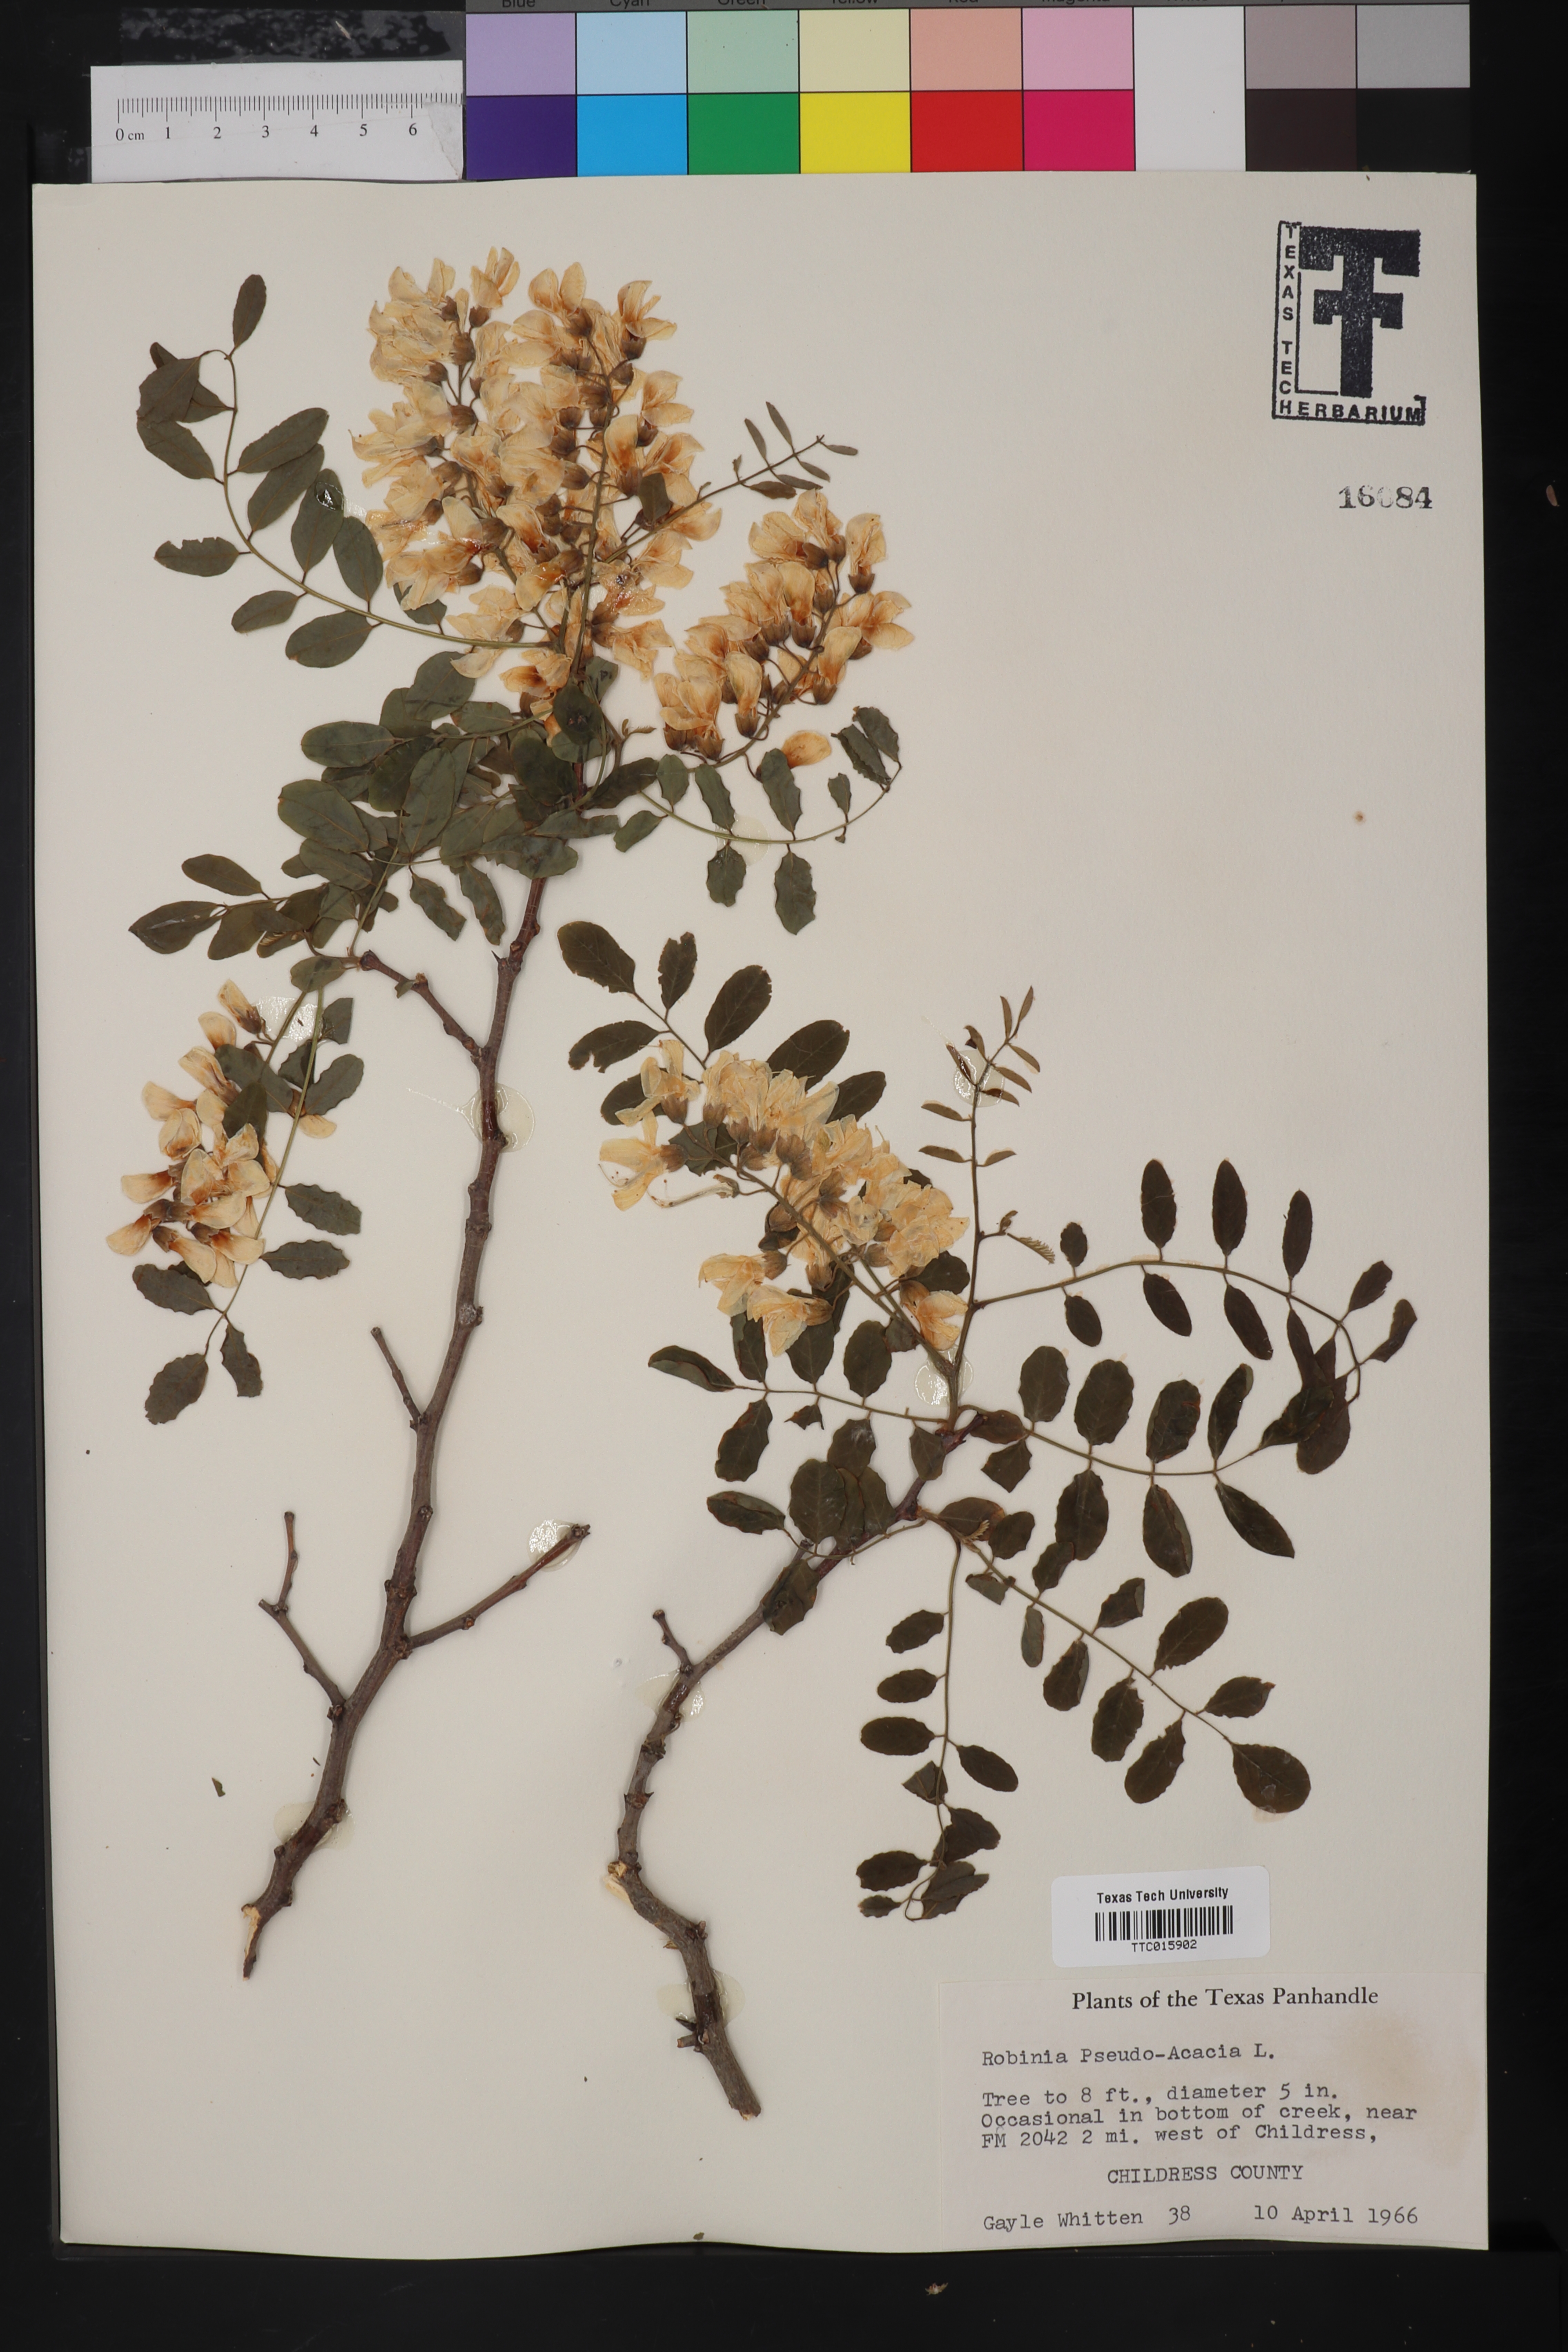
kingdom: Plantae
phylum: Tracheophyta
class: Magnoliopsida
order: Fabales
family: Fabaceae
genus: Robinia
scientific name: Robinia pseudoacacia
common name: Black locust
